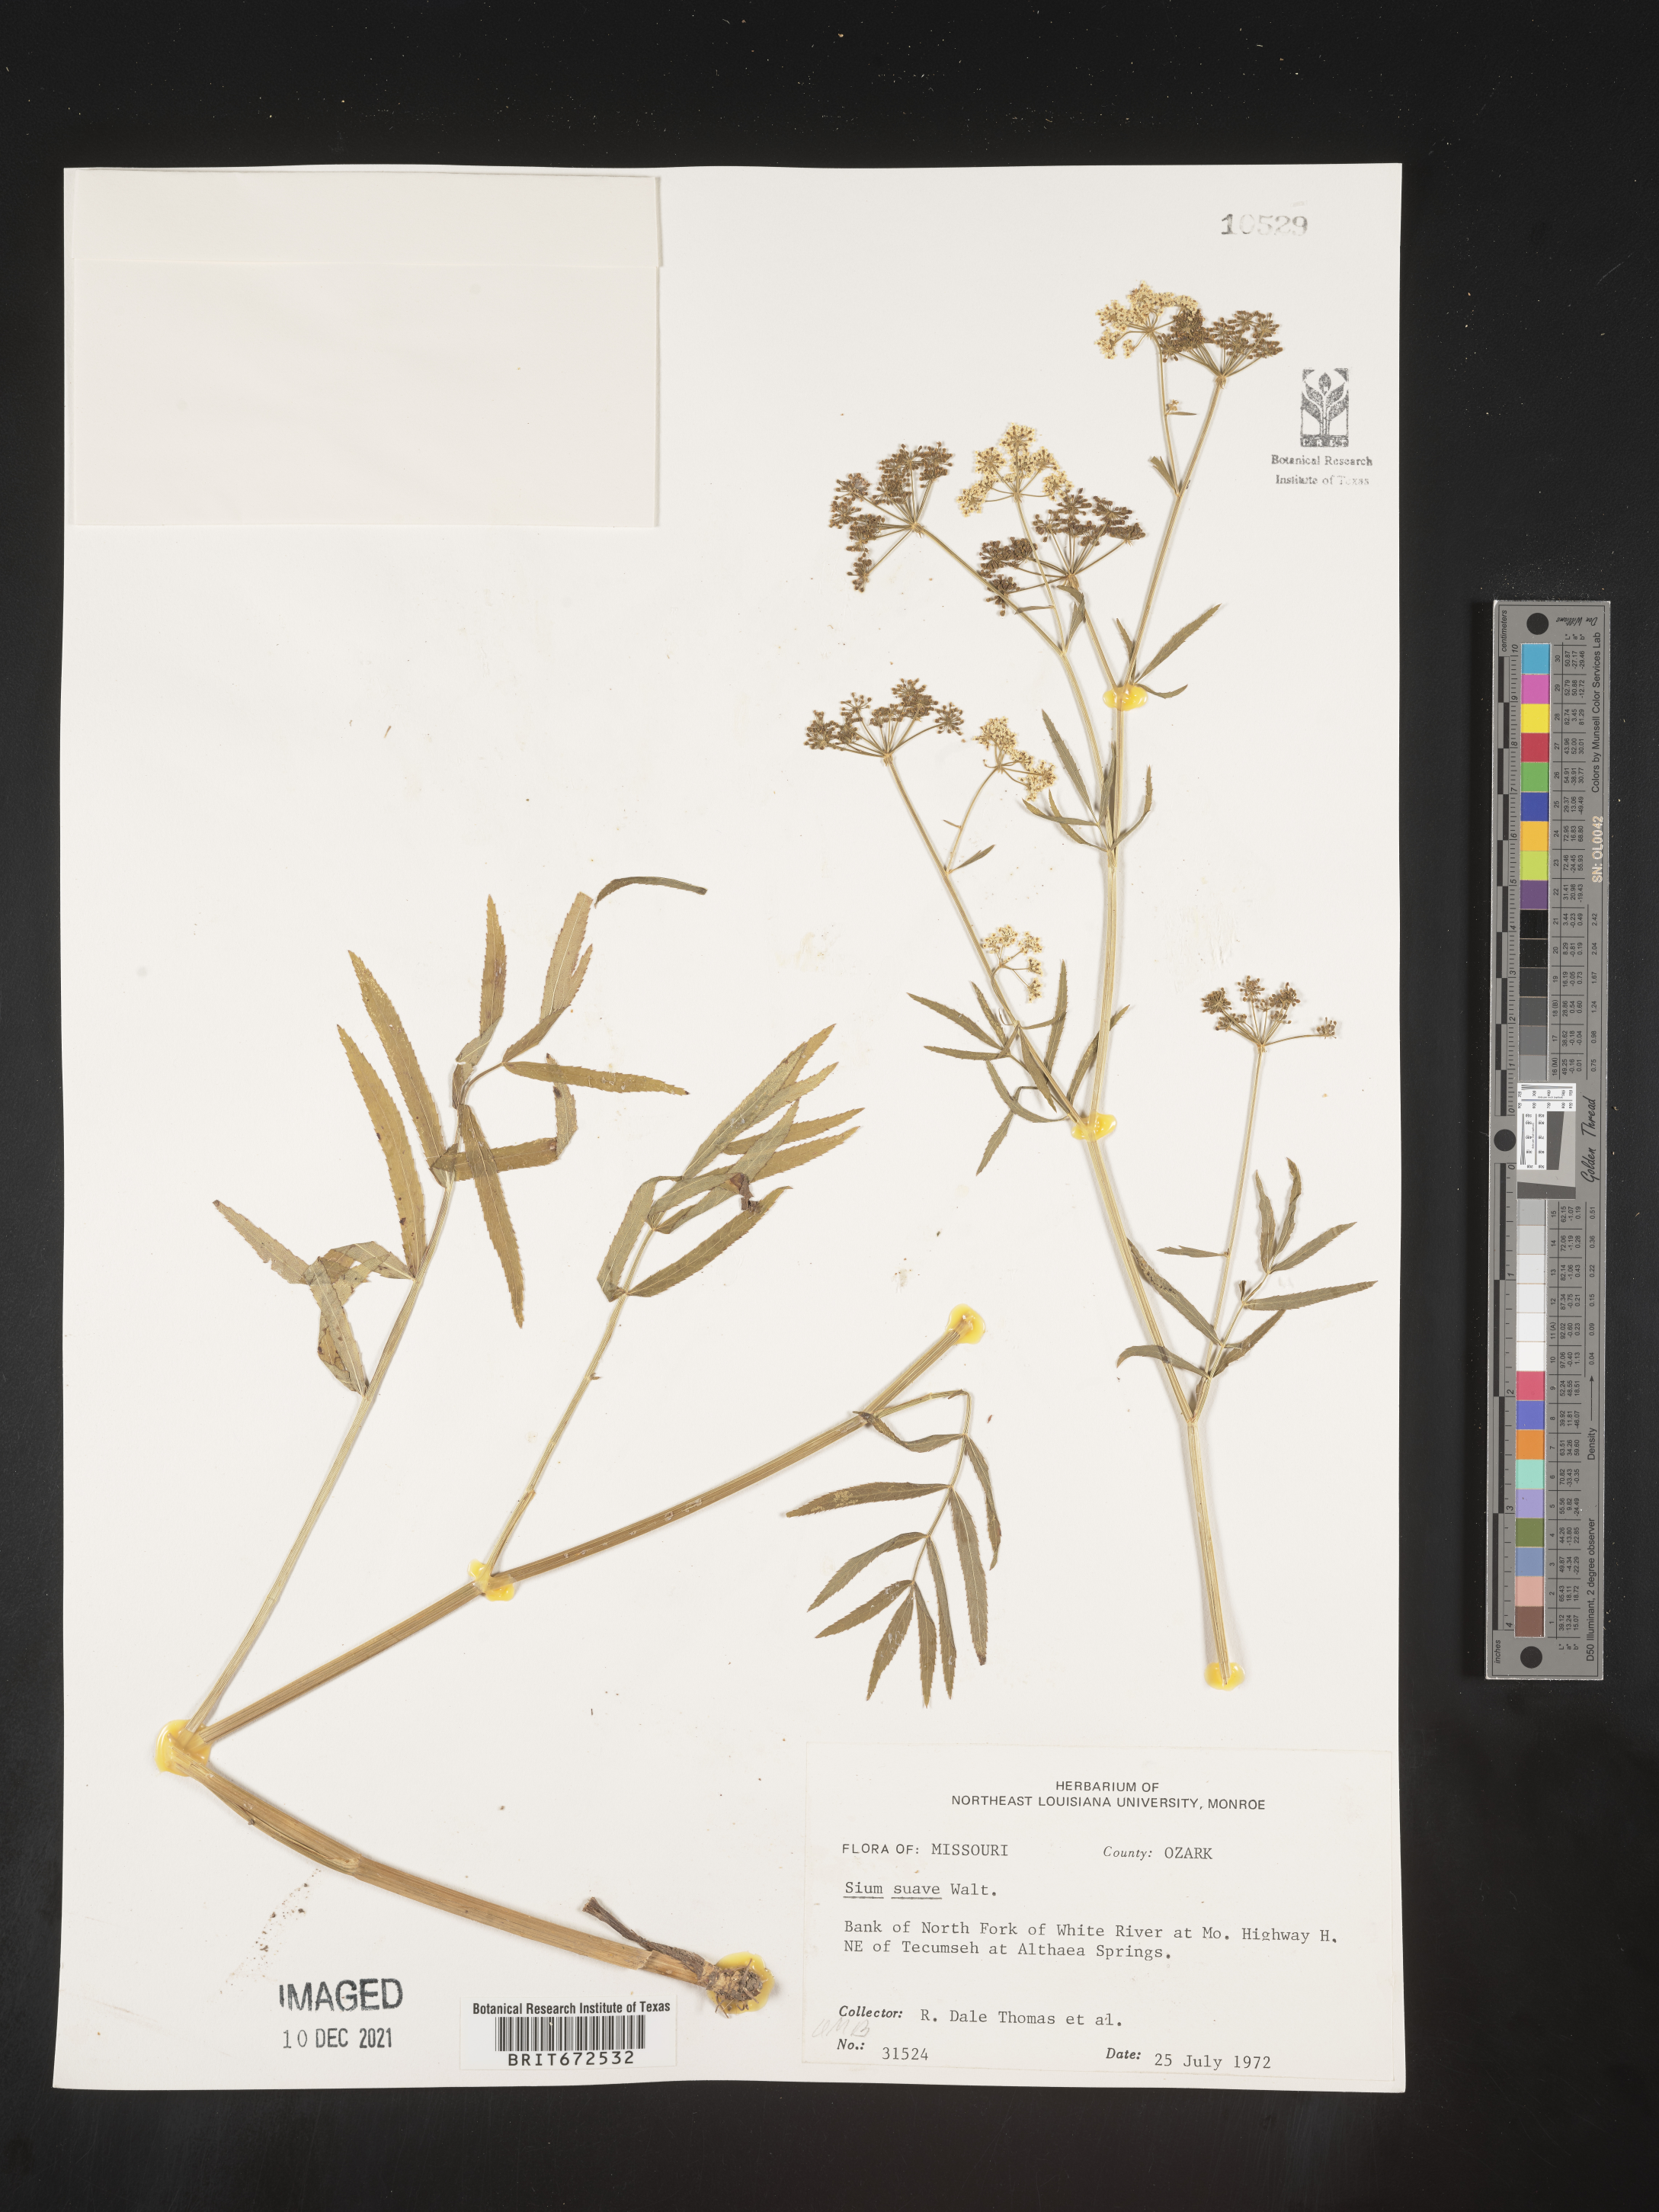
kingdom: Plantae
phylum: Tracheophyta
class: Magnoliopsida
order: Apiales
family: Apiaceae
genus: Sium
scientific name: Sium suave
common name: Hemlock water-parsnip
